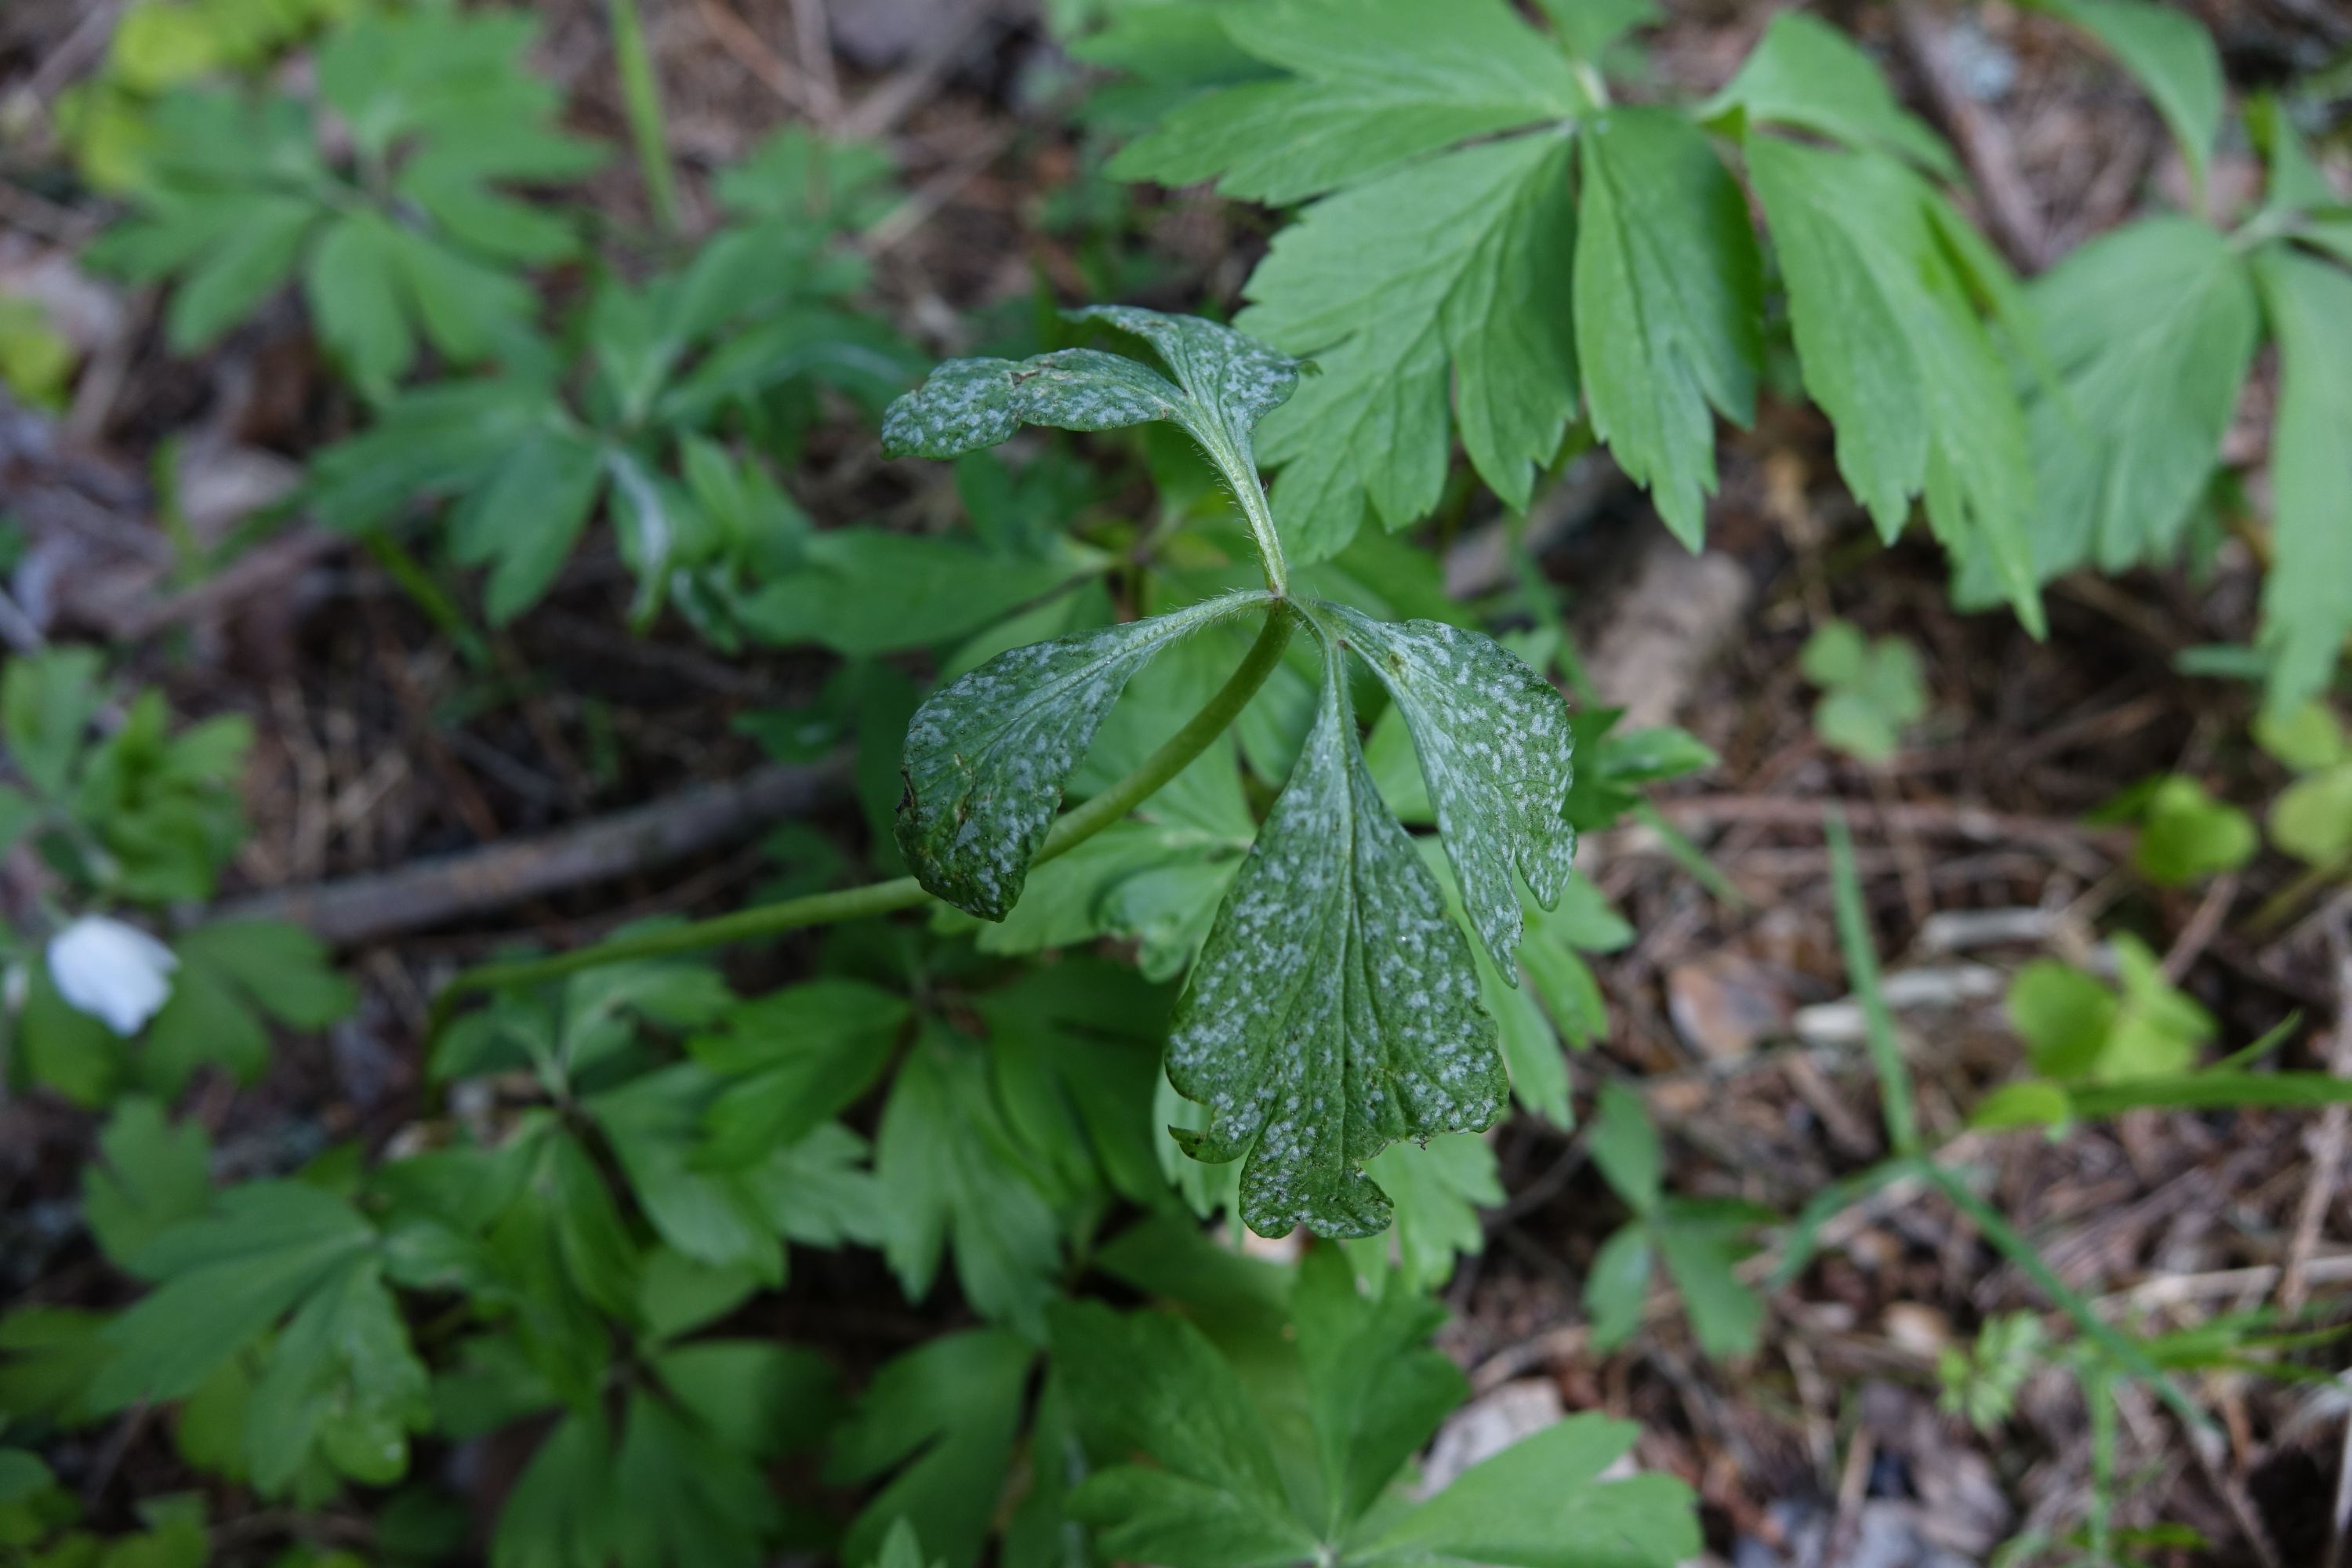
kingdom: Fungi
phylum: Basidiomycota
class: Pucciniomycetes
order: Pucciniales
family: Ochropsoraceae
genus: Ochropsora
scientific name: Ochropsora ariae
